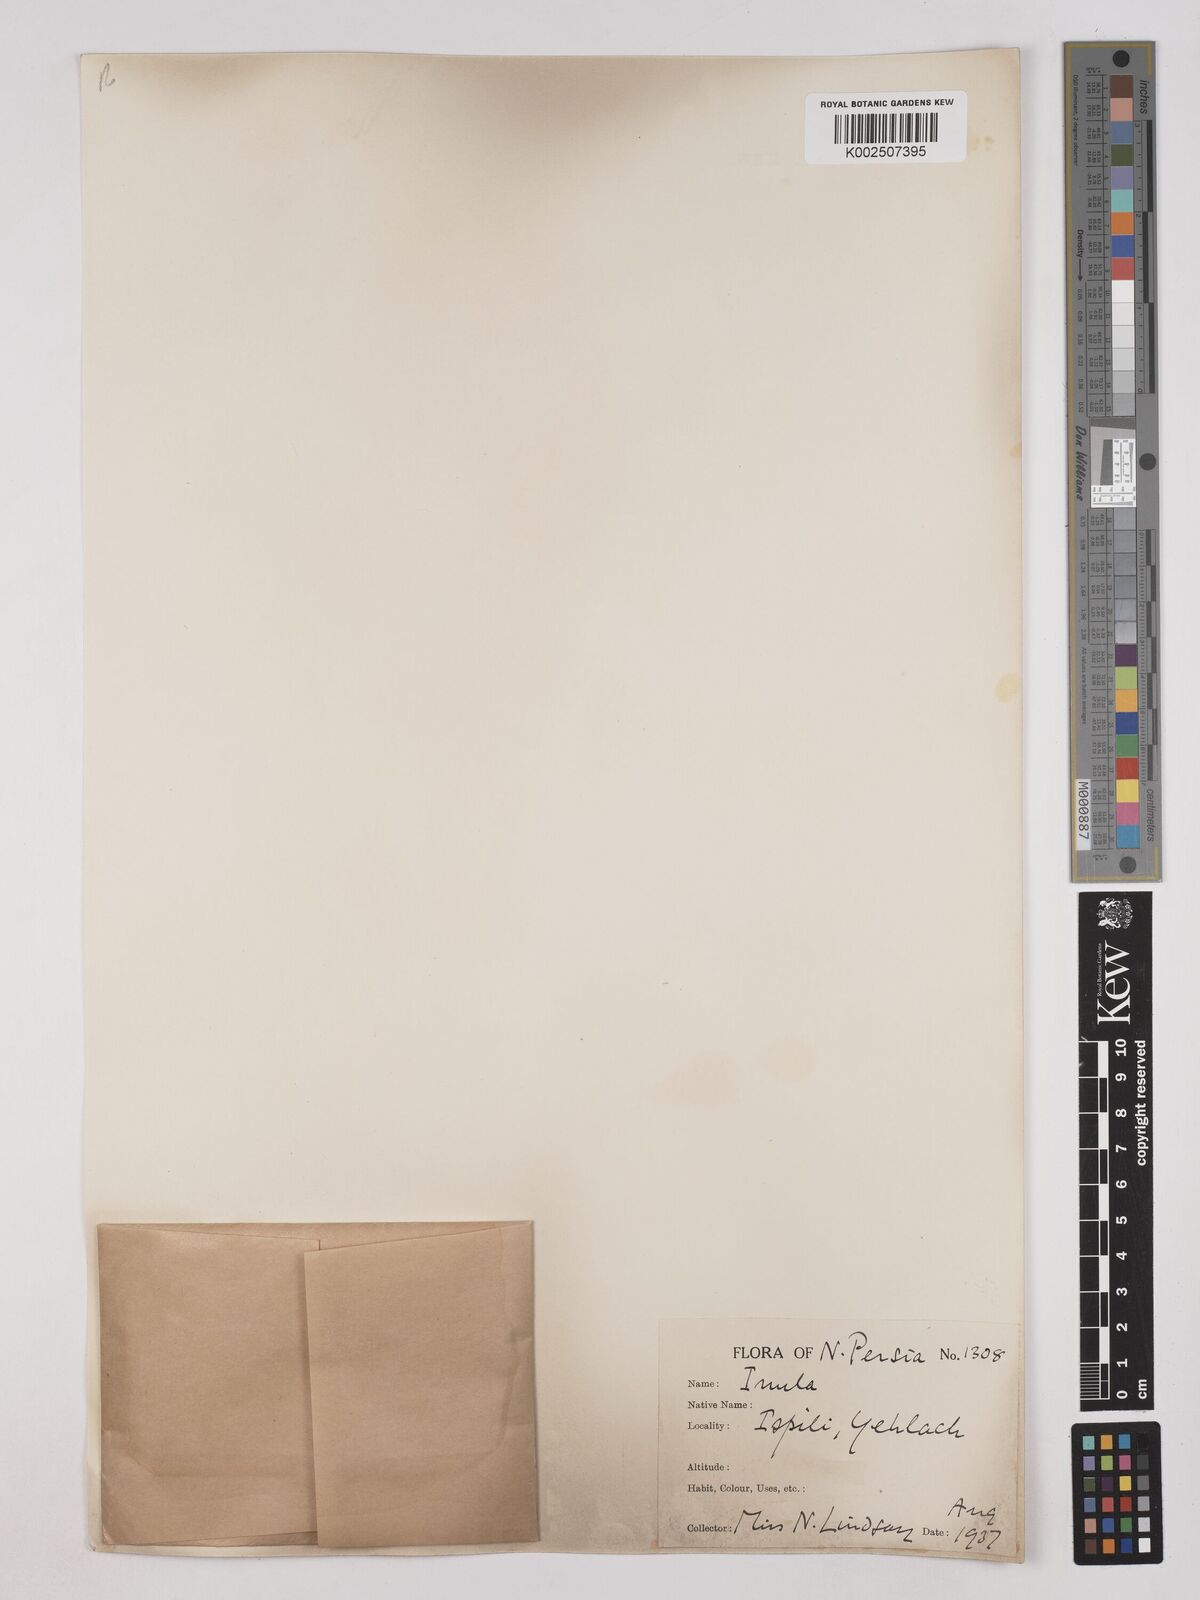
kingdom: Plantae
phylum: Tracheophyta
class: Magnoliopsida
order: Asterales
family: Asteraceae
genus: Inula
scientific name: Inula helenium
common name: Elecampane
